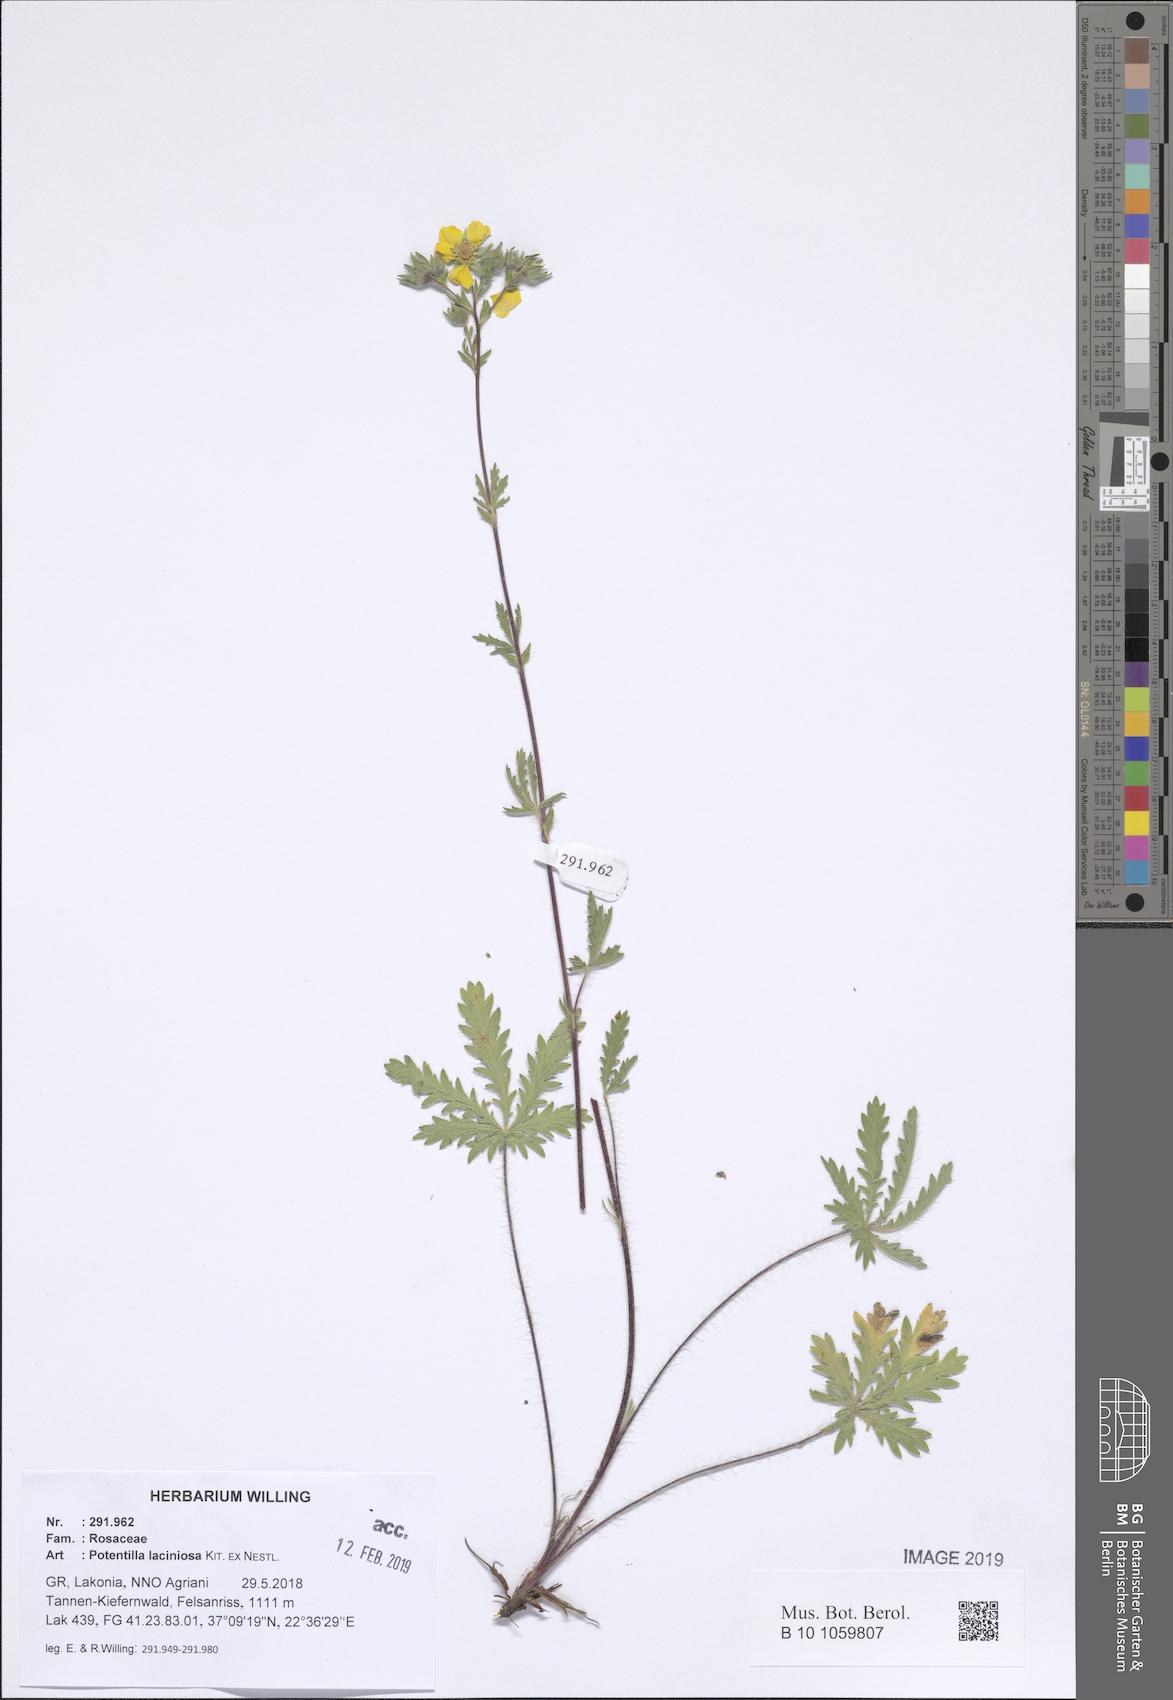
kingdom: Plantae
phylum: Tracheophyta
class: Magnoliopsida
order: Rosales
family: Rosaceae
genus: Potentilla
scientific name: Potentilla recta
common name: Sulphur cinquefoil
